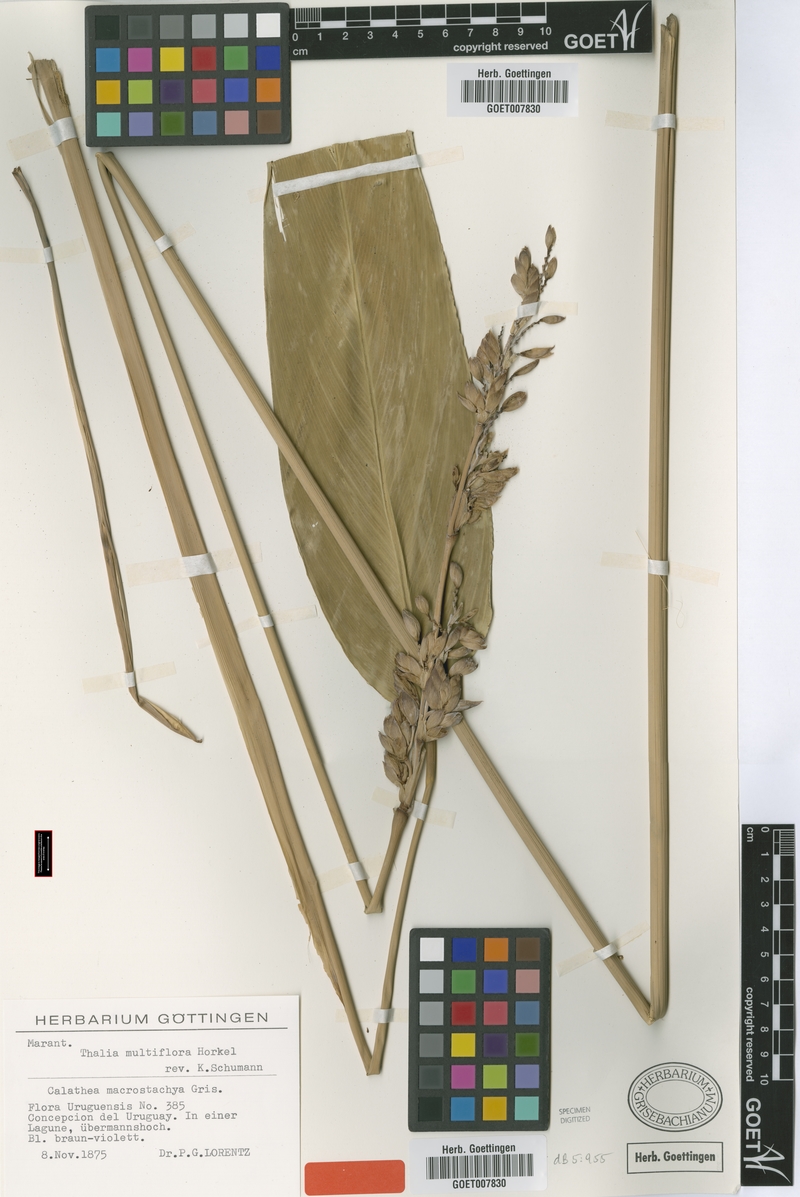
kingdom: Plantae
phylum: Tracheophyta
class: Liliopsida
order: Zingiberales
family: Marantaceae
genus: Thalia
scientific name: Thalia multiflora
